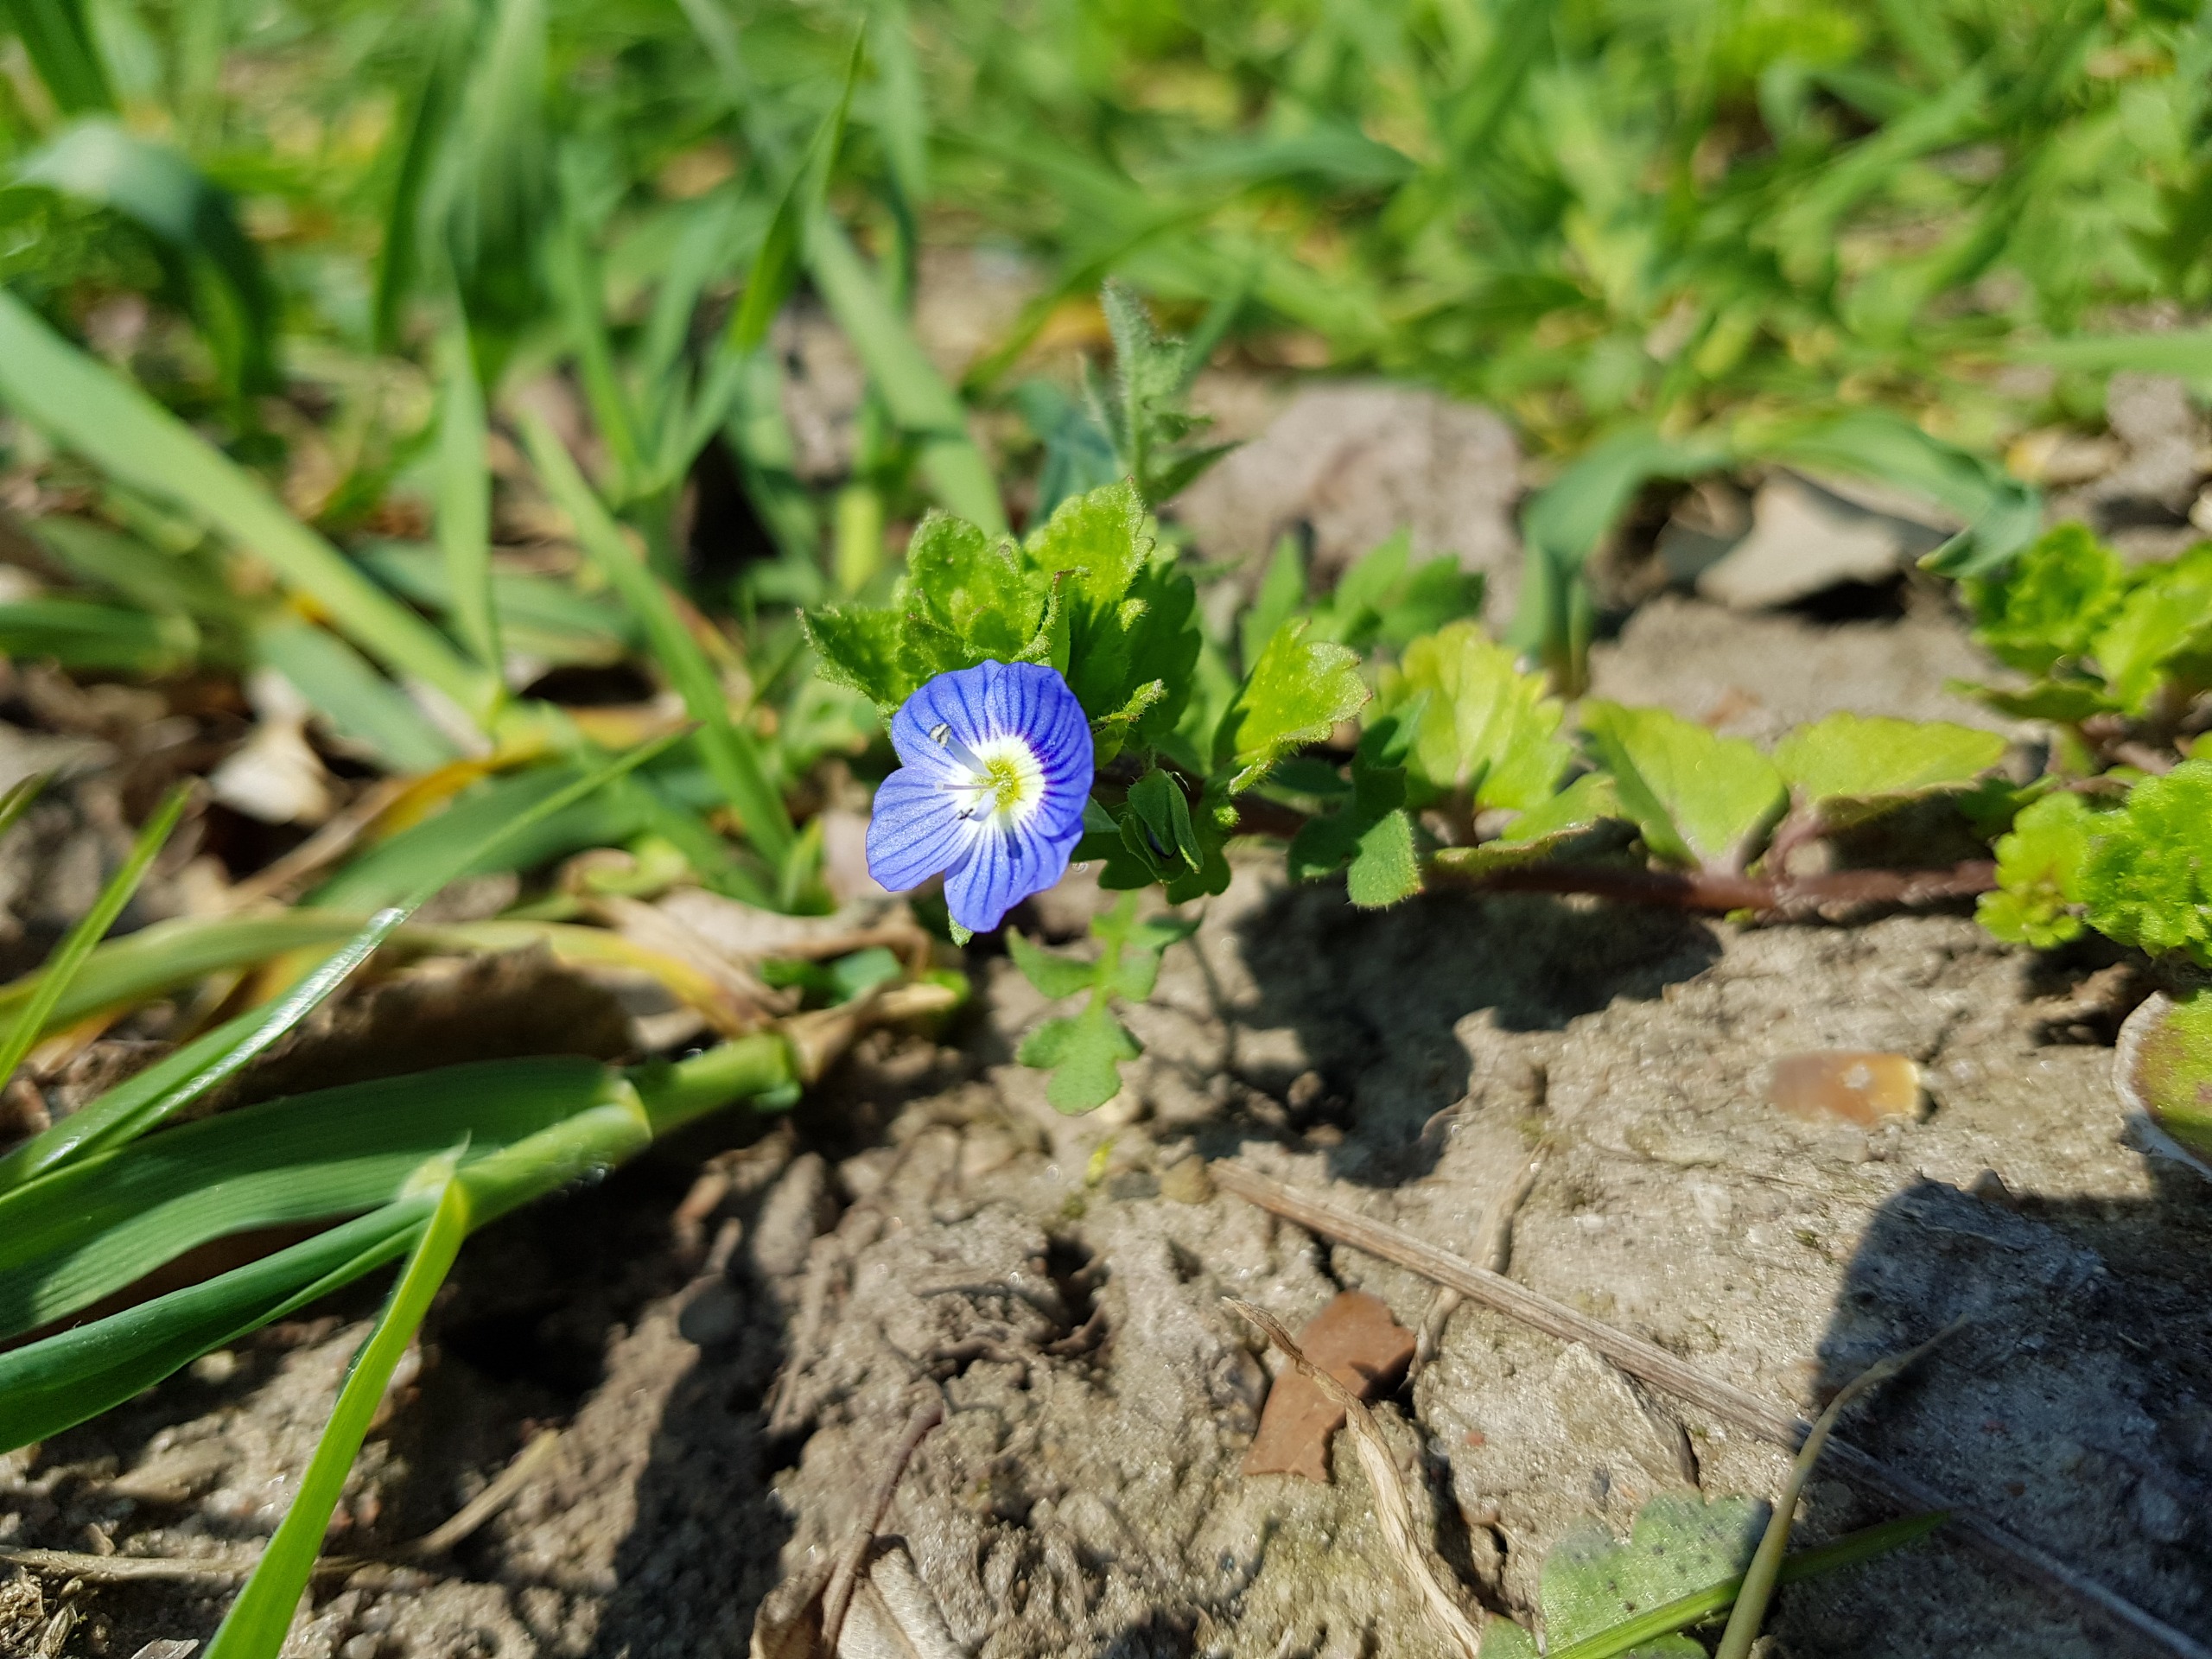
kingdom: Plantae
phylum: Tracheophyta
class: Magnoliopsida
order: Lamiales
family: Plantaginaceae
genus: Veronica
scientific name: Veronica persica
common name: Storkronet ærenpris
